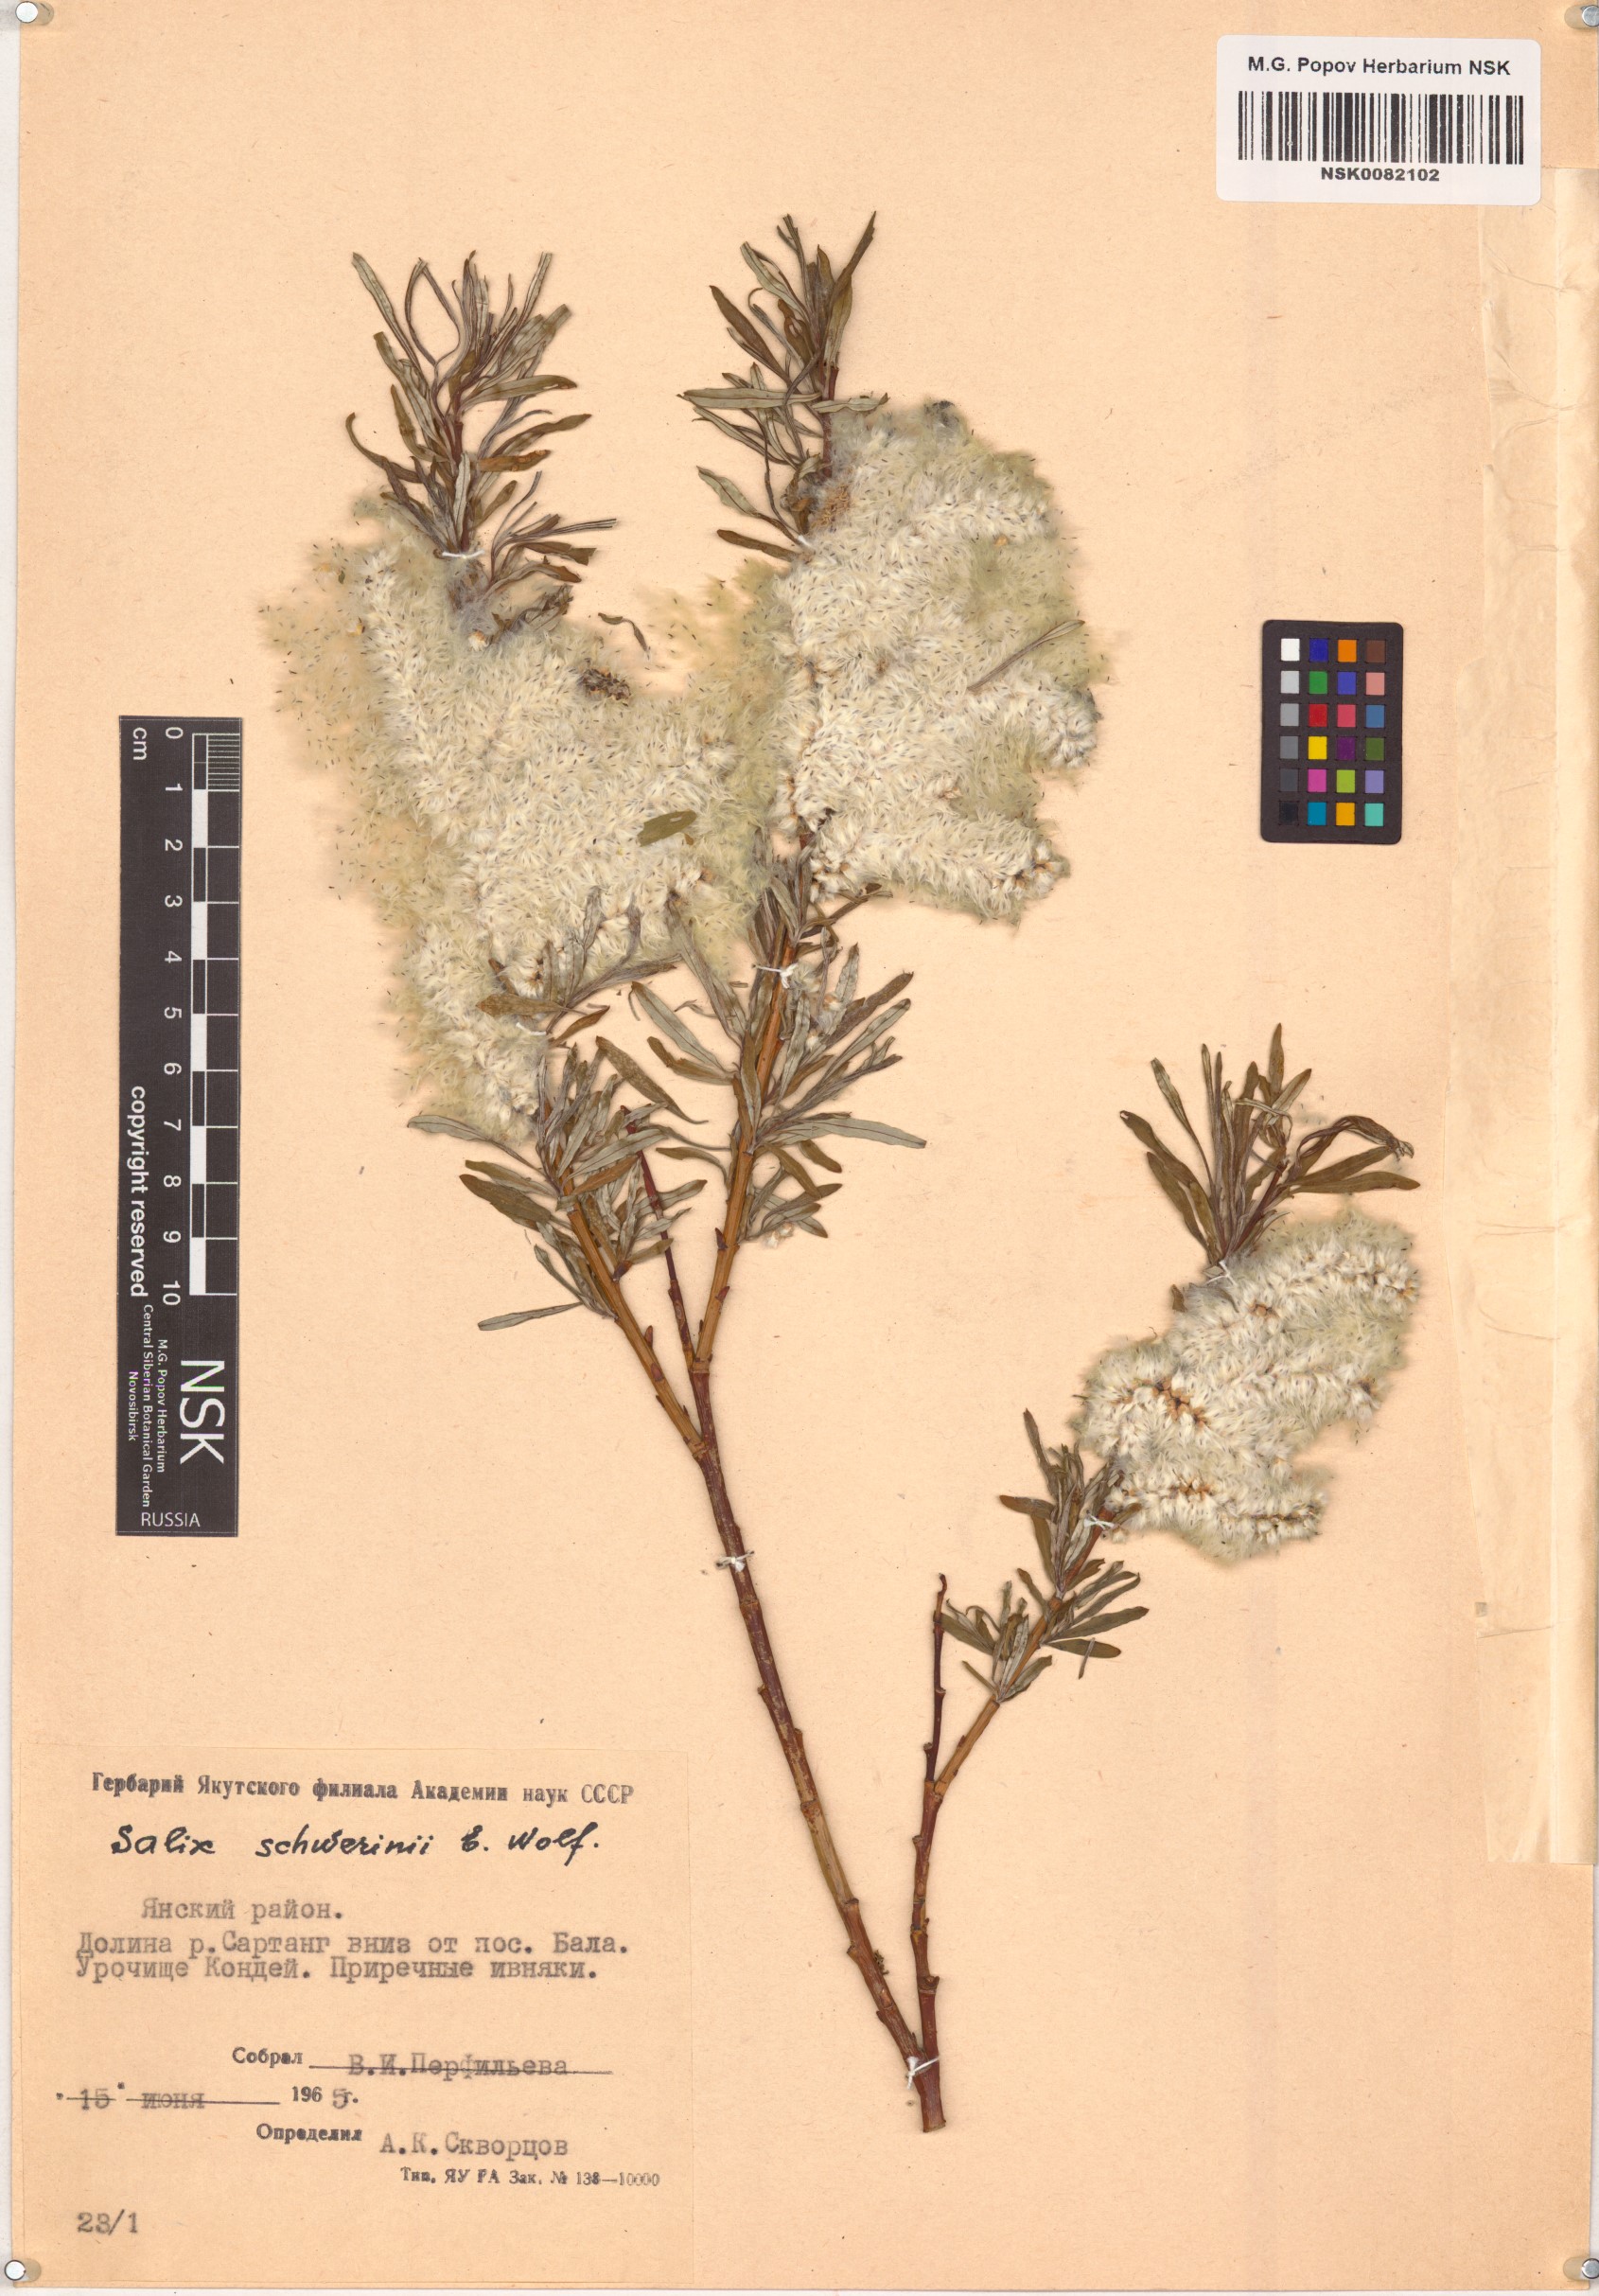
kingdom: Plantae
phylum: Tracheophyta
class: Magnoliopsida
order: Malpighiales
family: Salicaceae
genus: Salix
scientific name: Salix schwerinii
